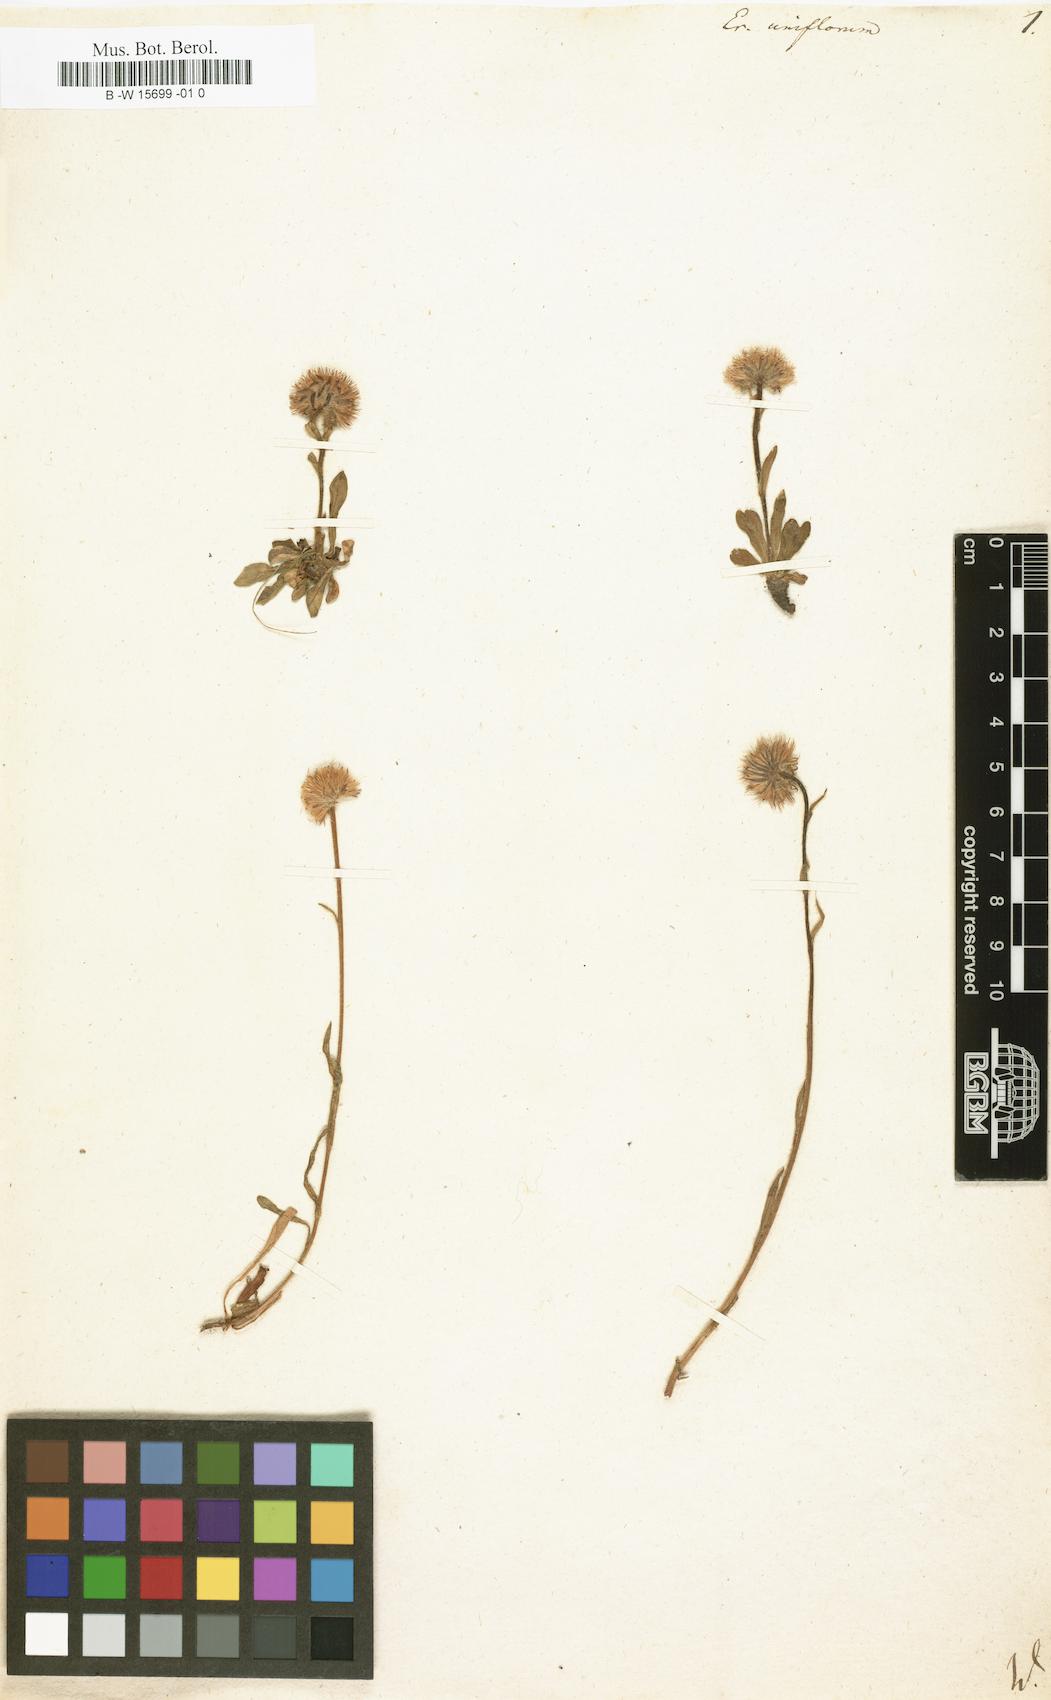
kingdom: Plantae
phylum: Tracheophyta
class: Magnoliopsida
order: Asterales
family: Asteraceae
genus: Erigeron
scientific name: Erigeron uniflorus
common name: Northern daisy
